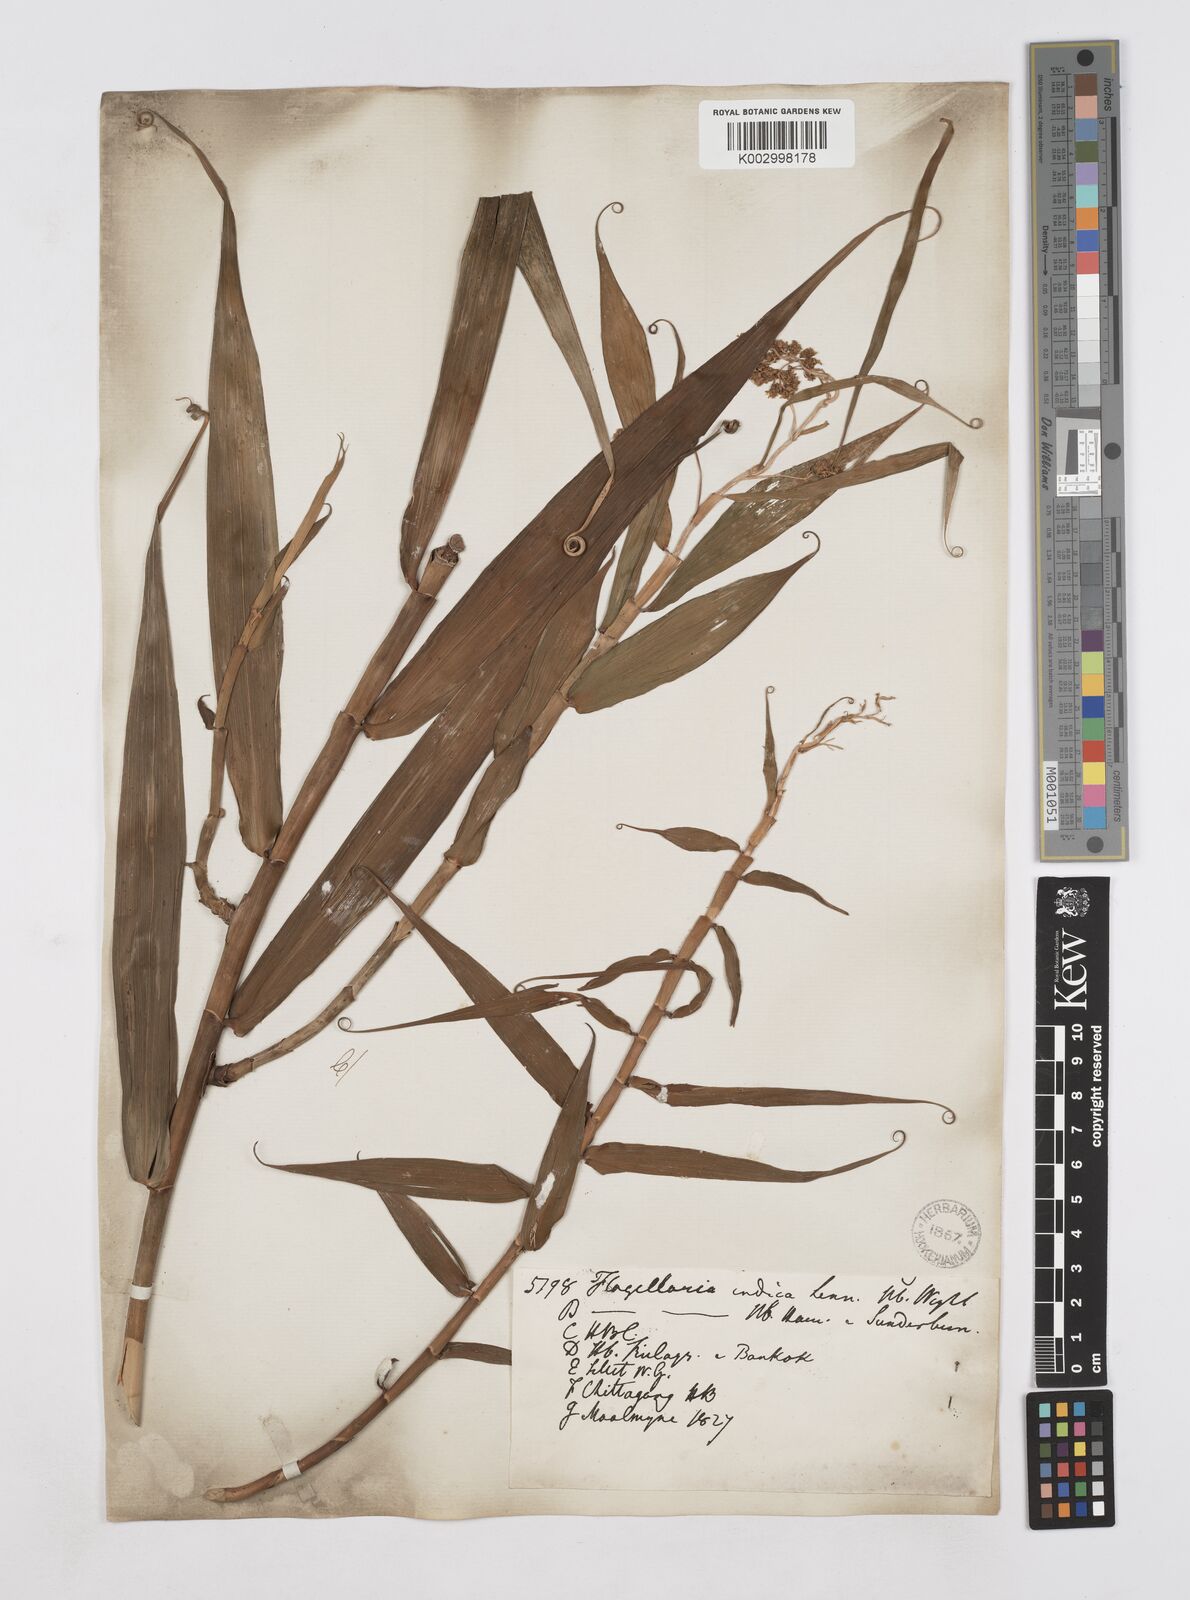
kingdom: Plantae
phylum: Tracheophyta
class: Liliopsida
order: Poales
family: Flagellariaceae
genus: Flagellaria
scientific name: Flagellaria indica
